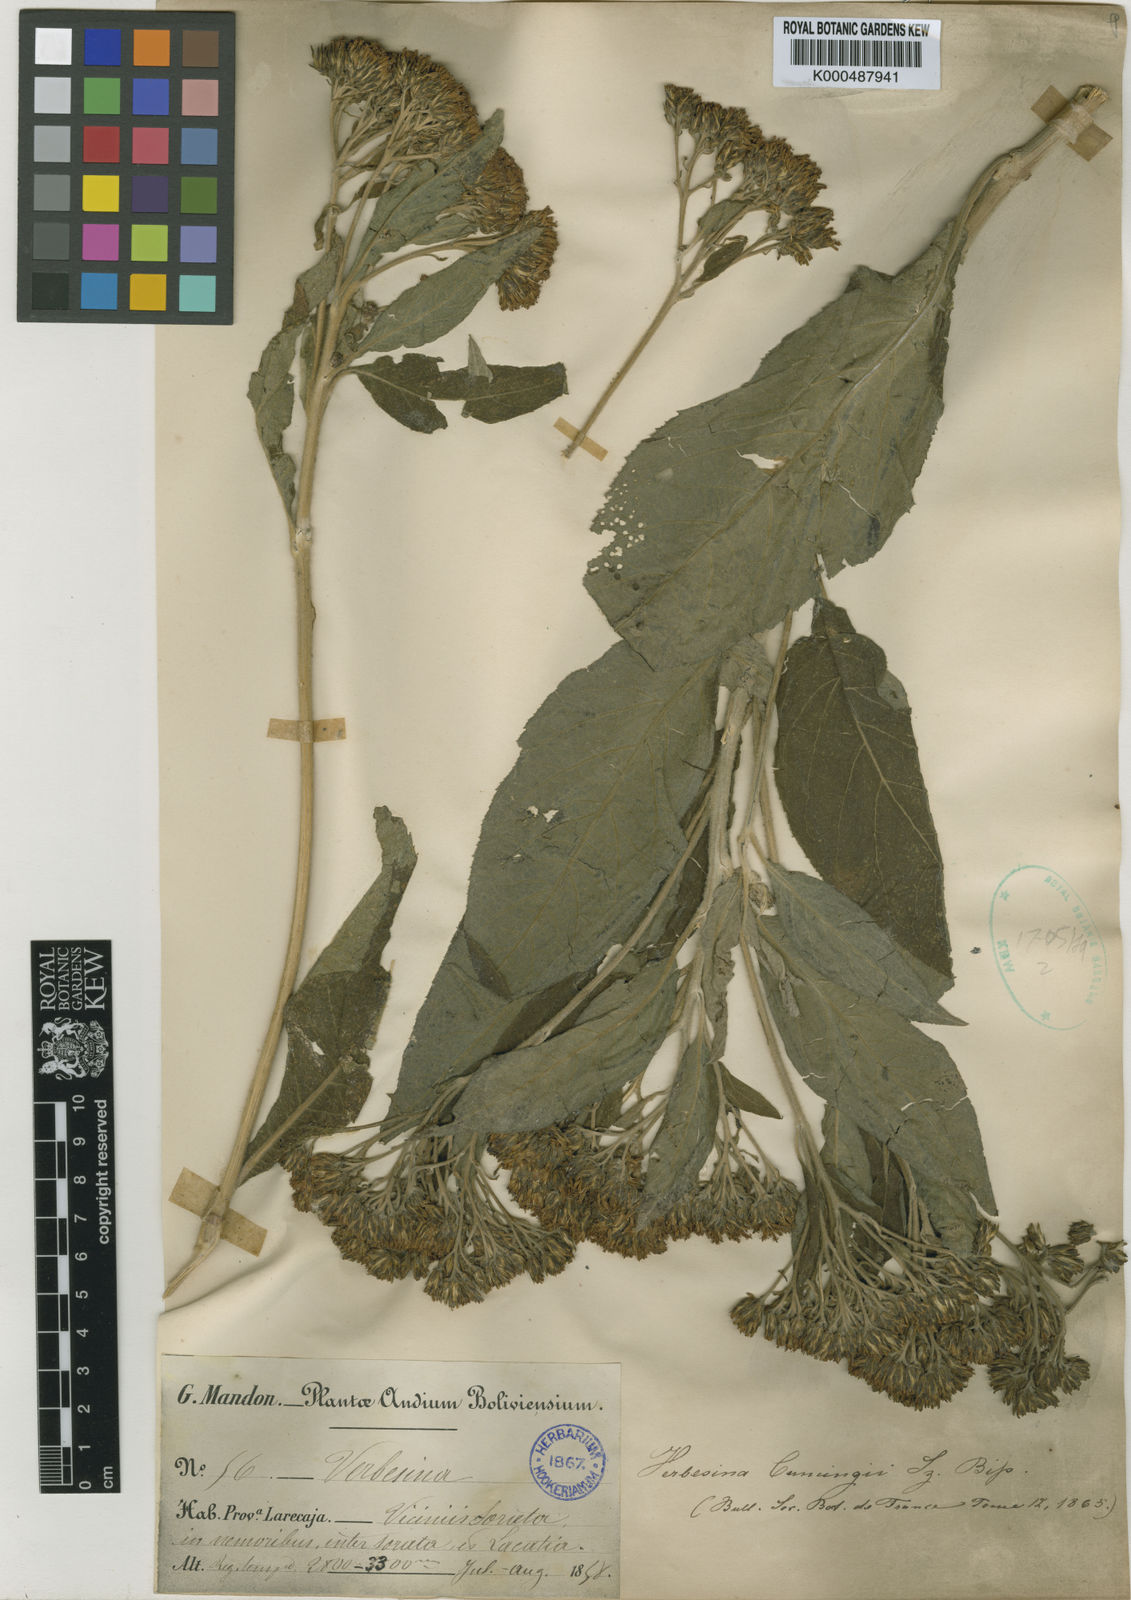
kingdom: Plantae
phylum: Tracheophyta
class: Magnoliopsida
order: Asterales
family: Asteraceae
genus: Verbesina
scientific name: Verbesina arborea
